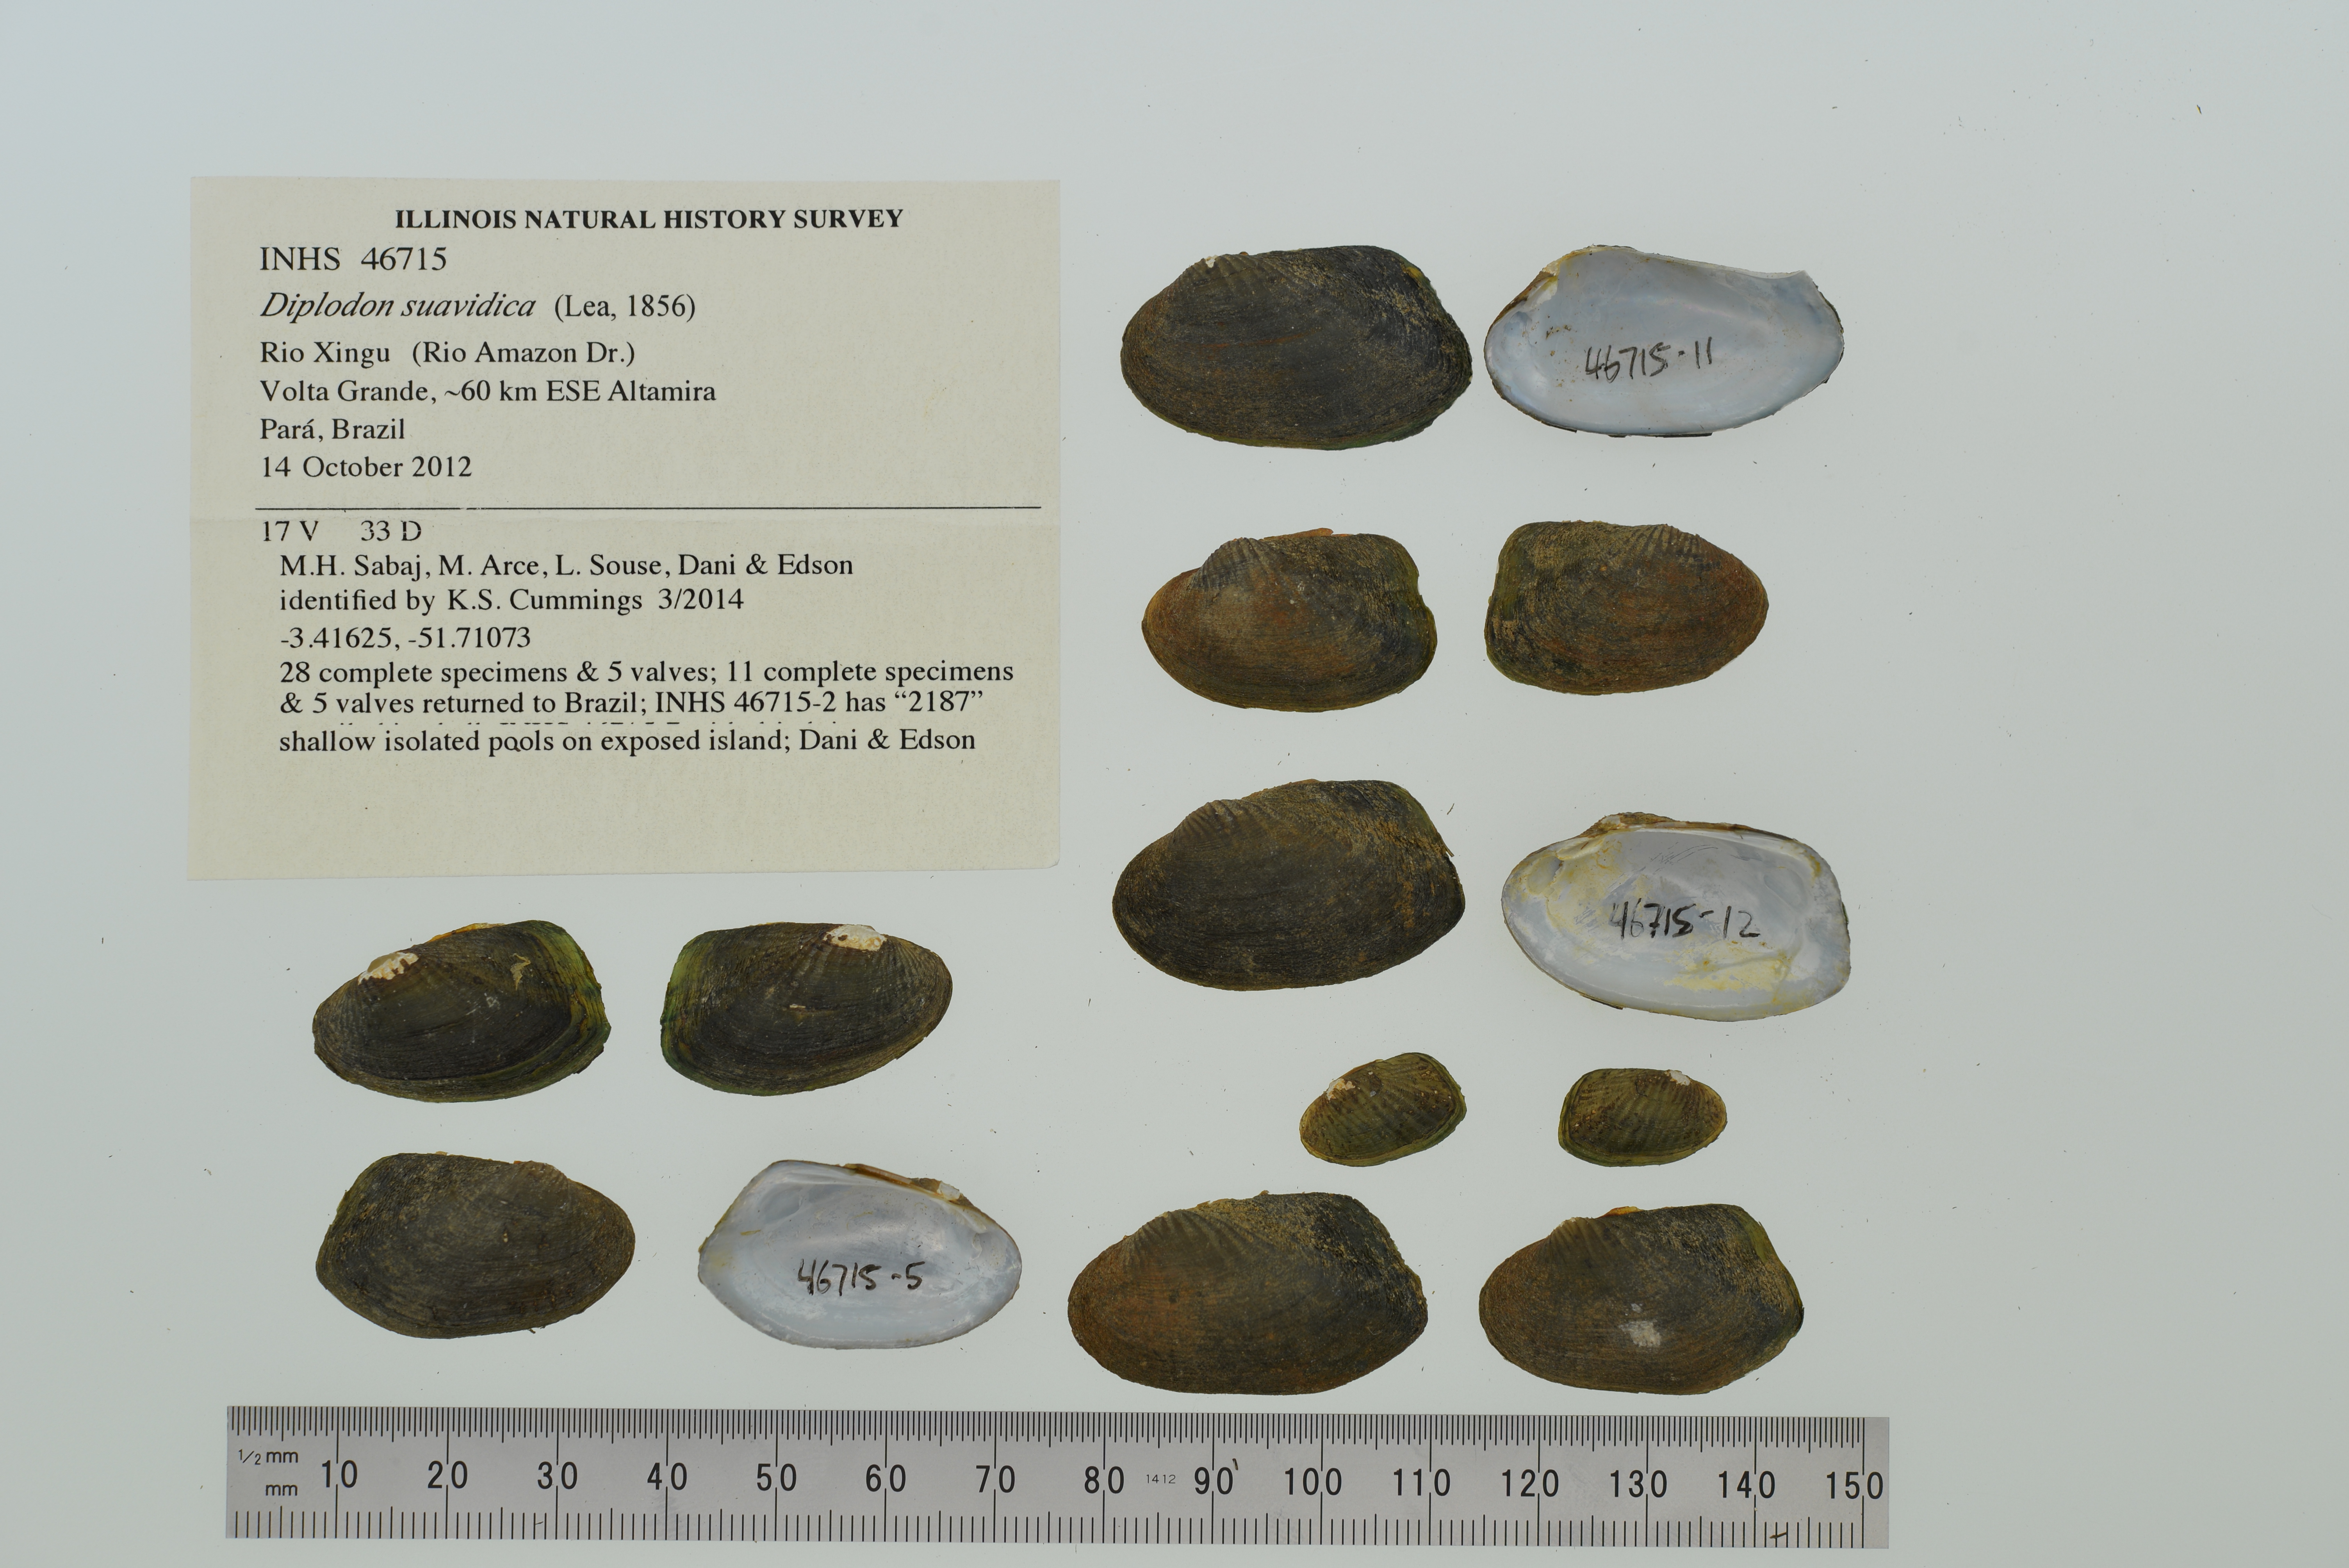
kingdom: Animalia
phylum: Mollusca
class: Bivalvia
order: Unionida
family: Hyriidae
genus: Diplodon
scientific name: Diplodon suavidicus
